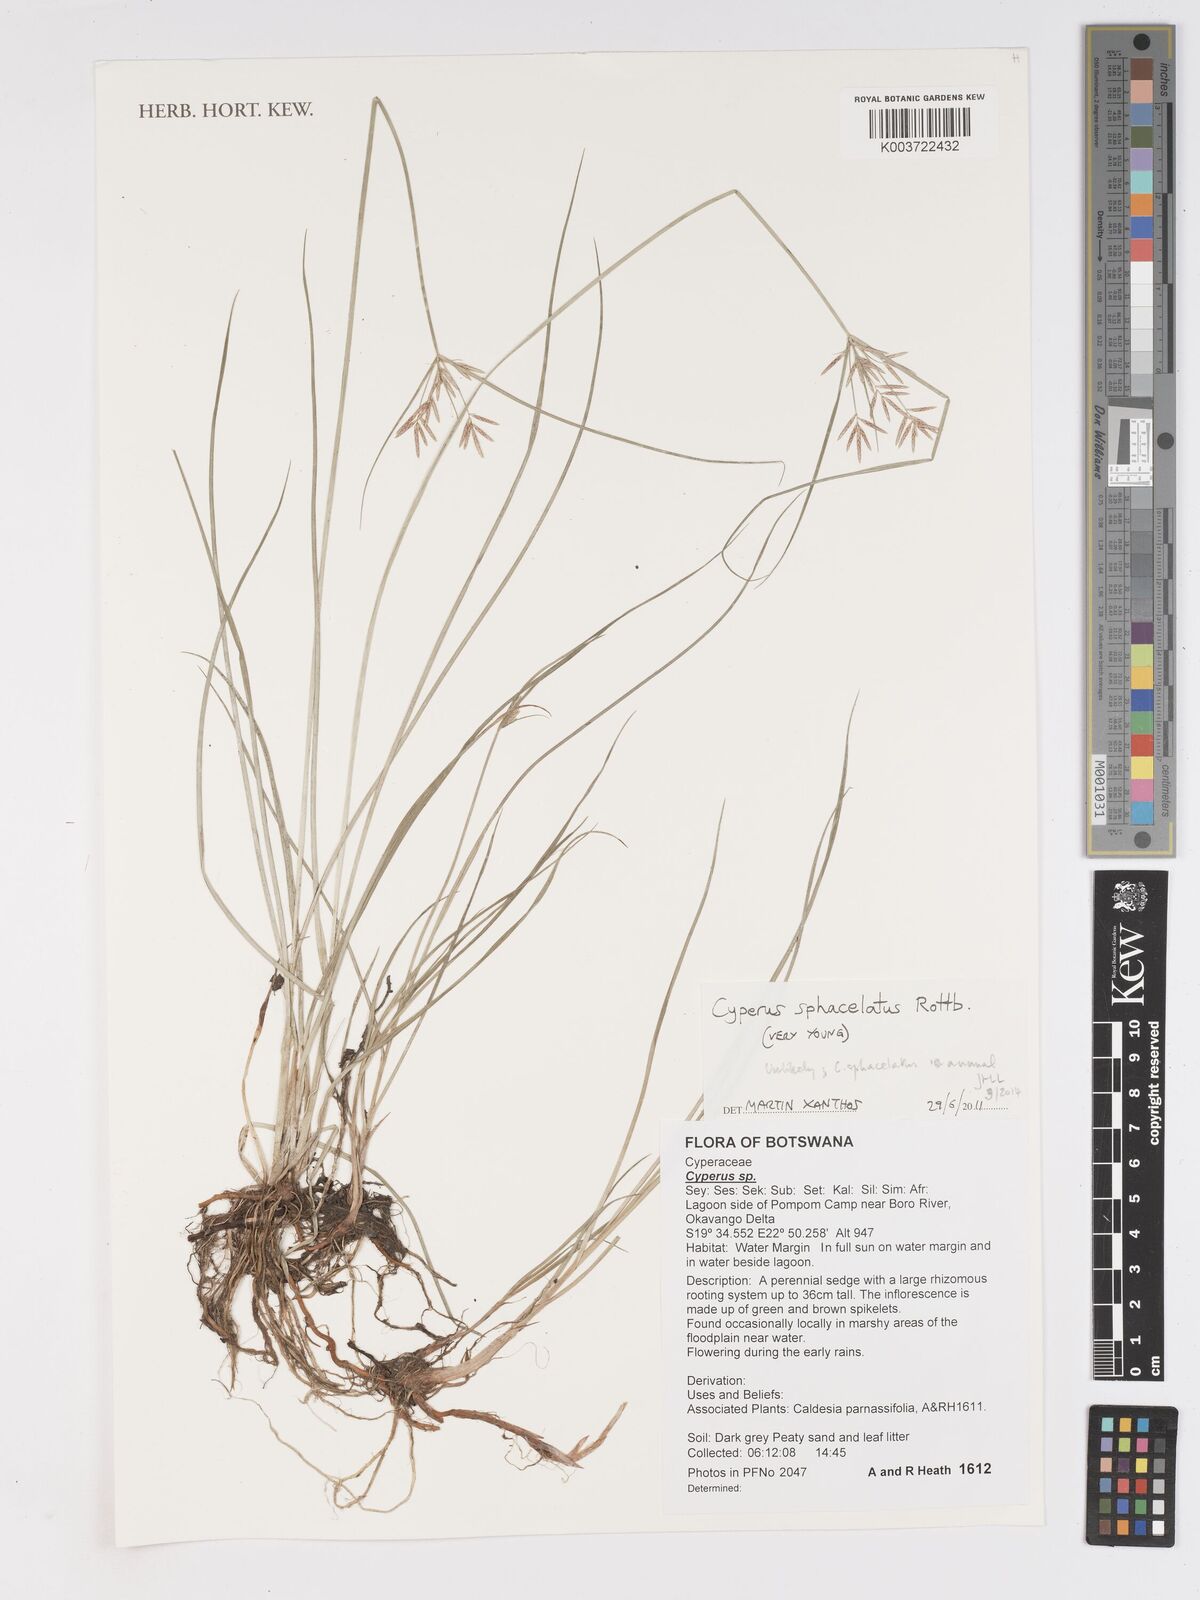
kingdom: Plantae
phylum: Tracheophyta
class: Liliopsida
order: Poales
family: Cyperaceae
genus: Cyperus
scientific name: Cyperus sphacelatus
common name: Roadside flatsedge
